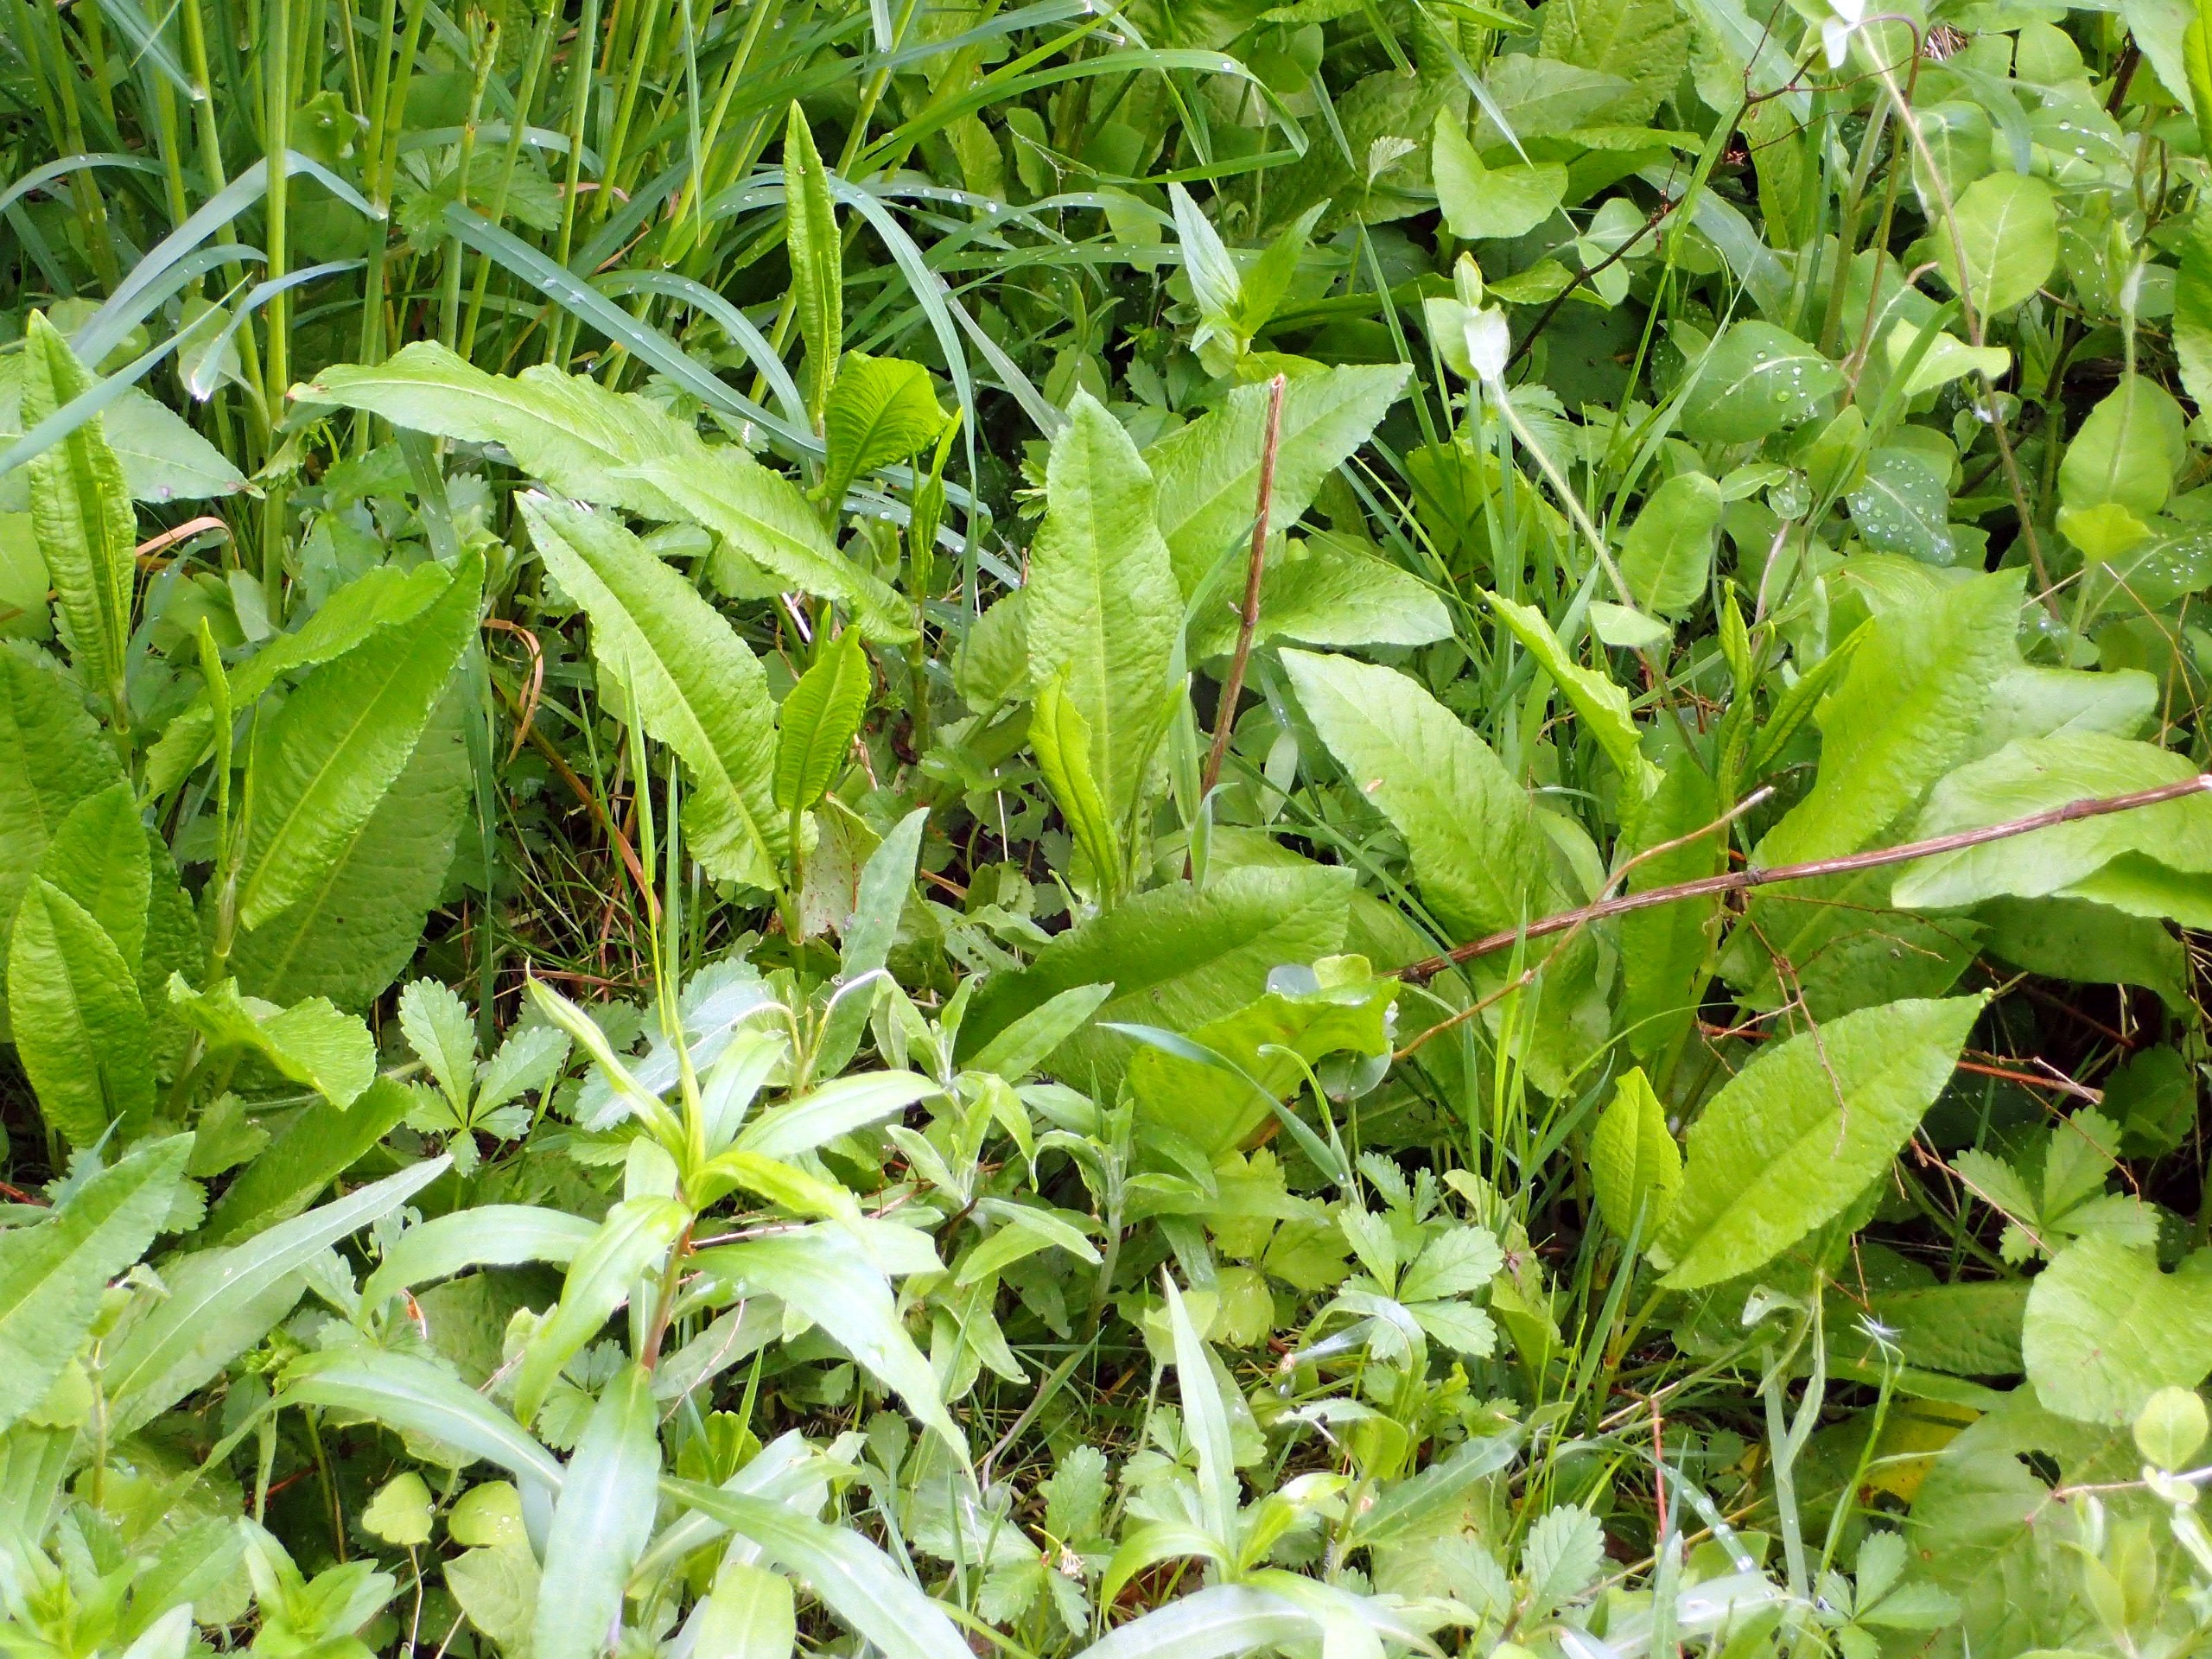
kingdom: Plantae
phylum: Tracheophyta
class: Magnoliopsida
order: Caryophyllales
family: Polygonaceae
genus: Rumex
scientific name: Rumex sanguineus
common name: Skov-skræppe
